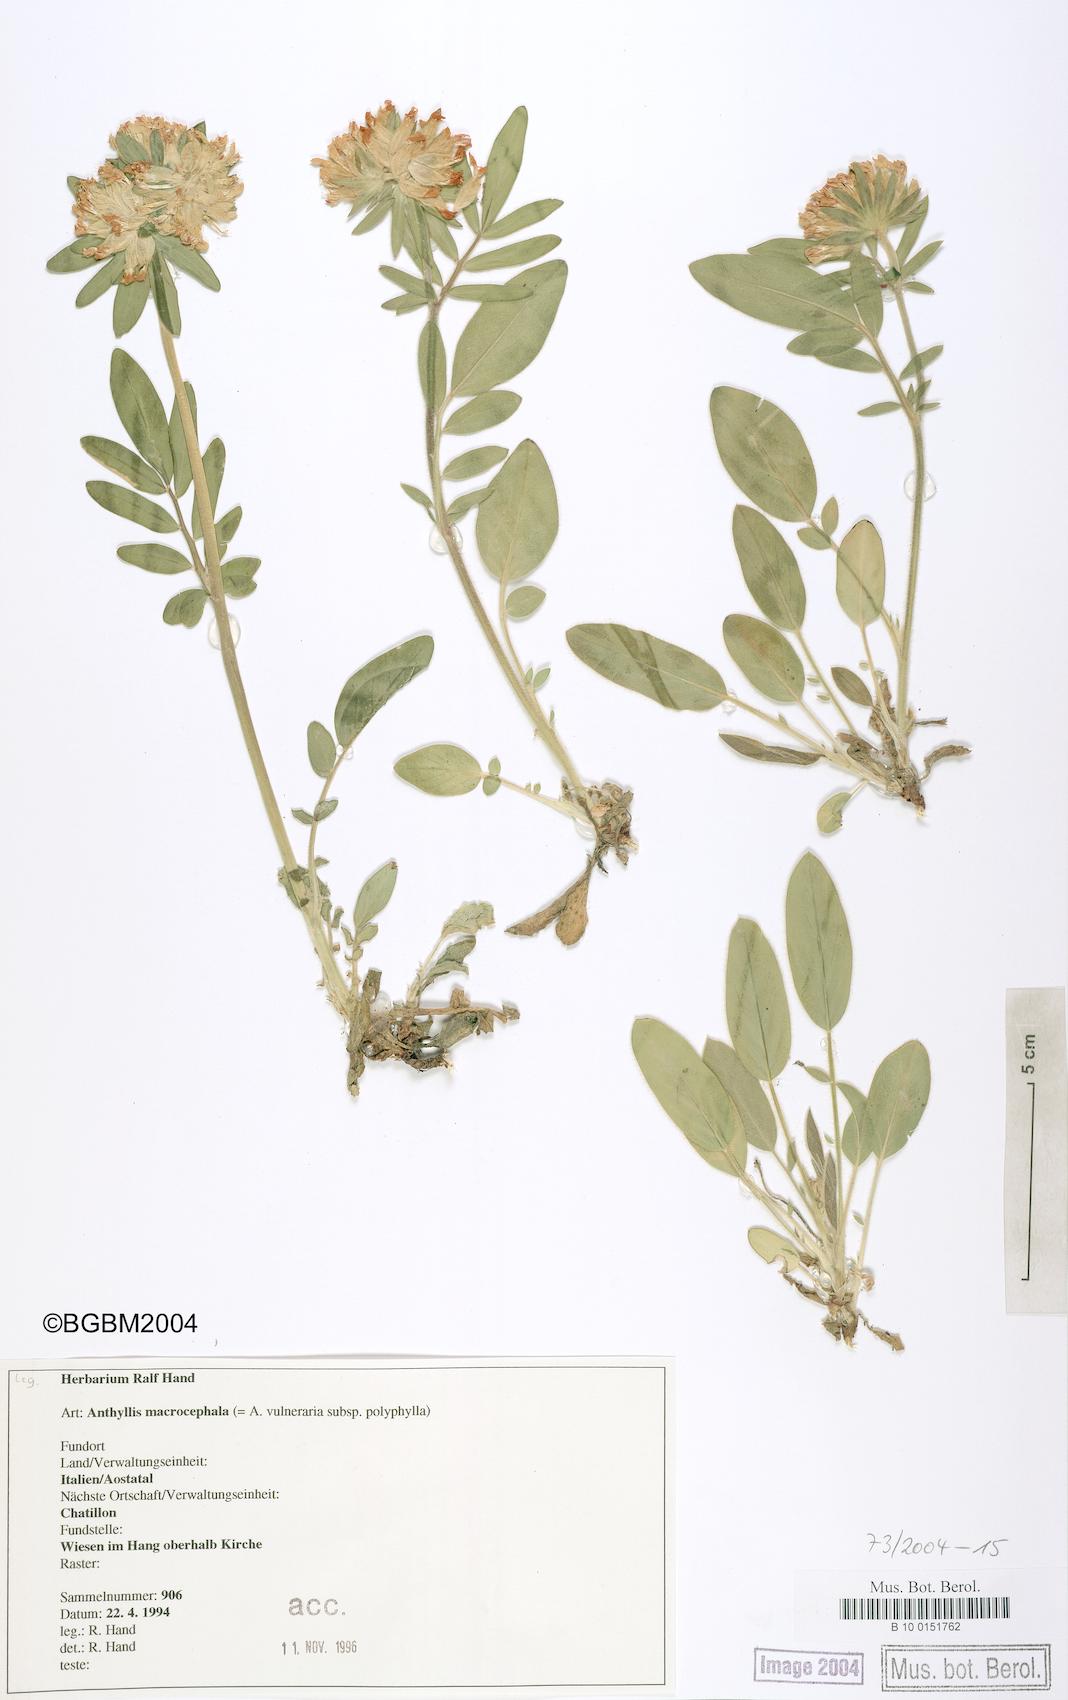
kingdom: Plantae
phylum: Tracheophyta
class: Magnoliopsida
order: Fabales
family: Fabaceae
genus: Anthyllis
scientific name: Anthyllis vulneraria
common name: Kidney vetch
